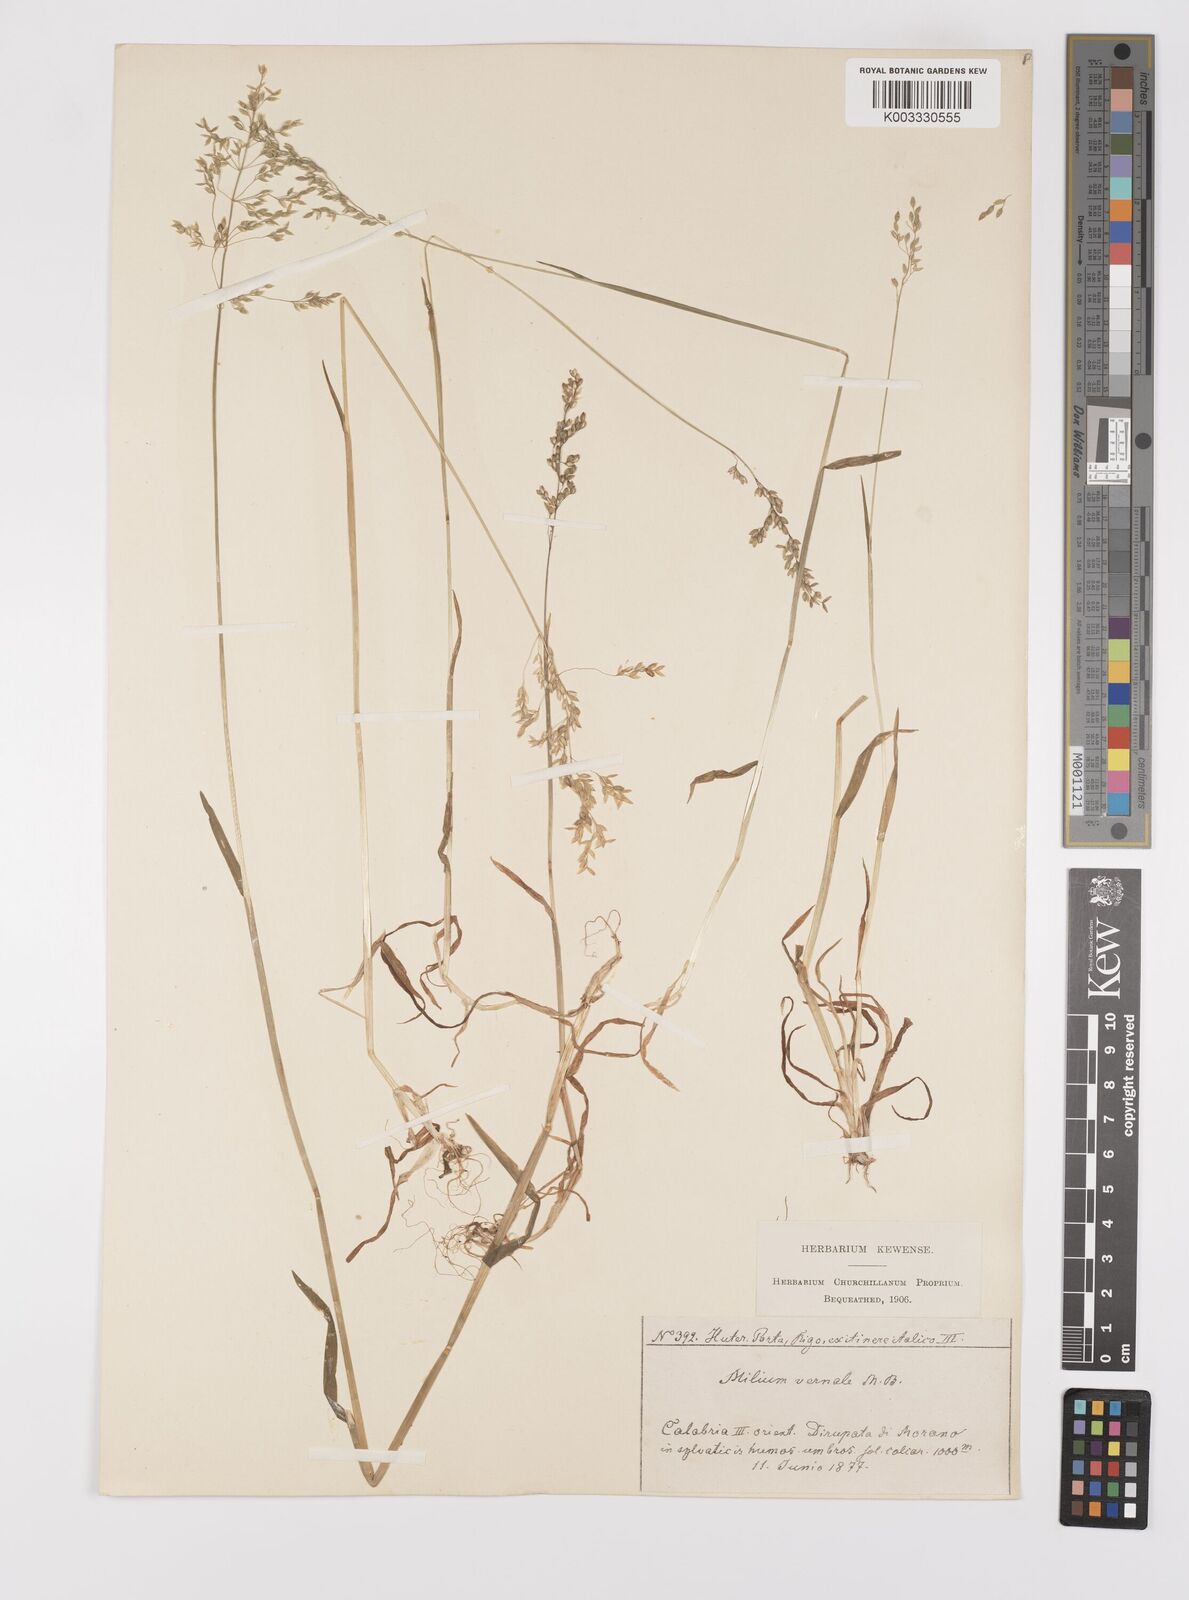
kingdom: Plantae
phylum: Tracheophyta
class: Liliopsida
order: Poales
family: Poaceae
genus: Milium
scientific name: Milium vernale
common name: Early millet
